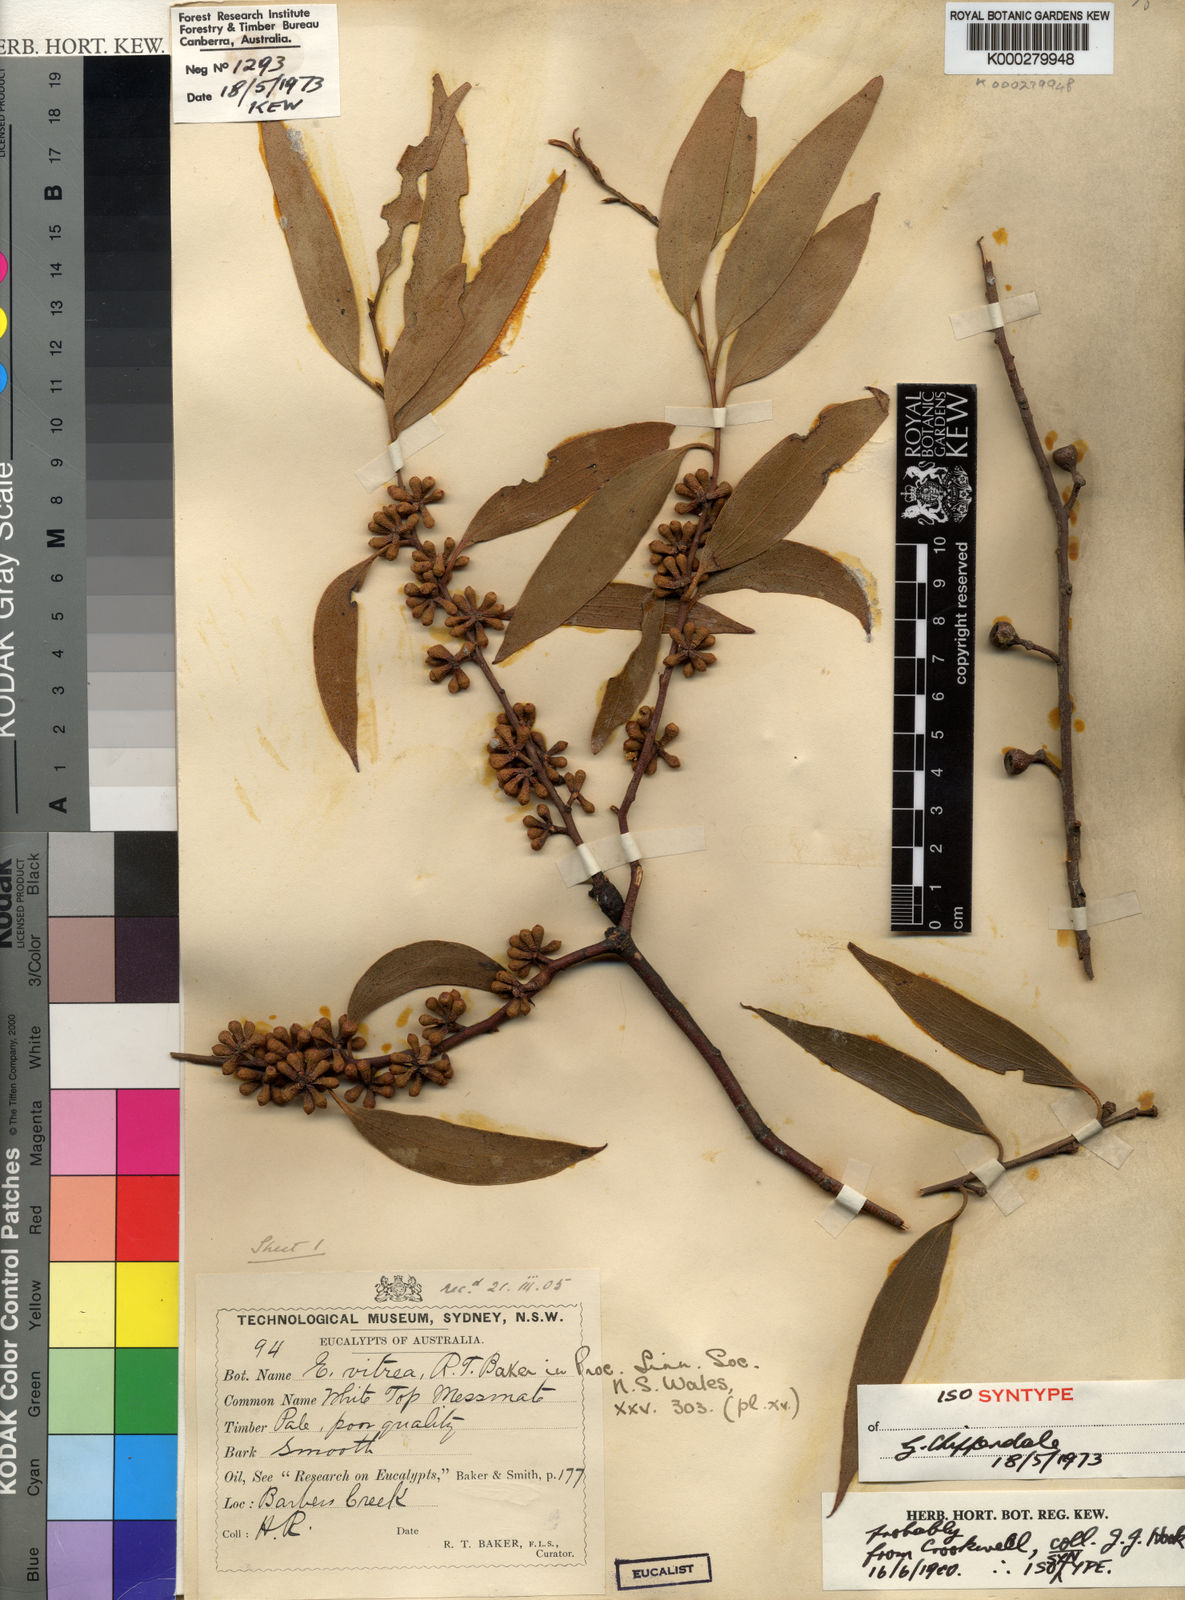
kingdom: Plantae
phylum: Tracheophyta
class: Magnoliopsida
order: Myrtales
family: Myrtaceae
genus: Eucalyptus
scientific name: Eucalyptus vitrea
